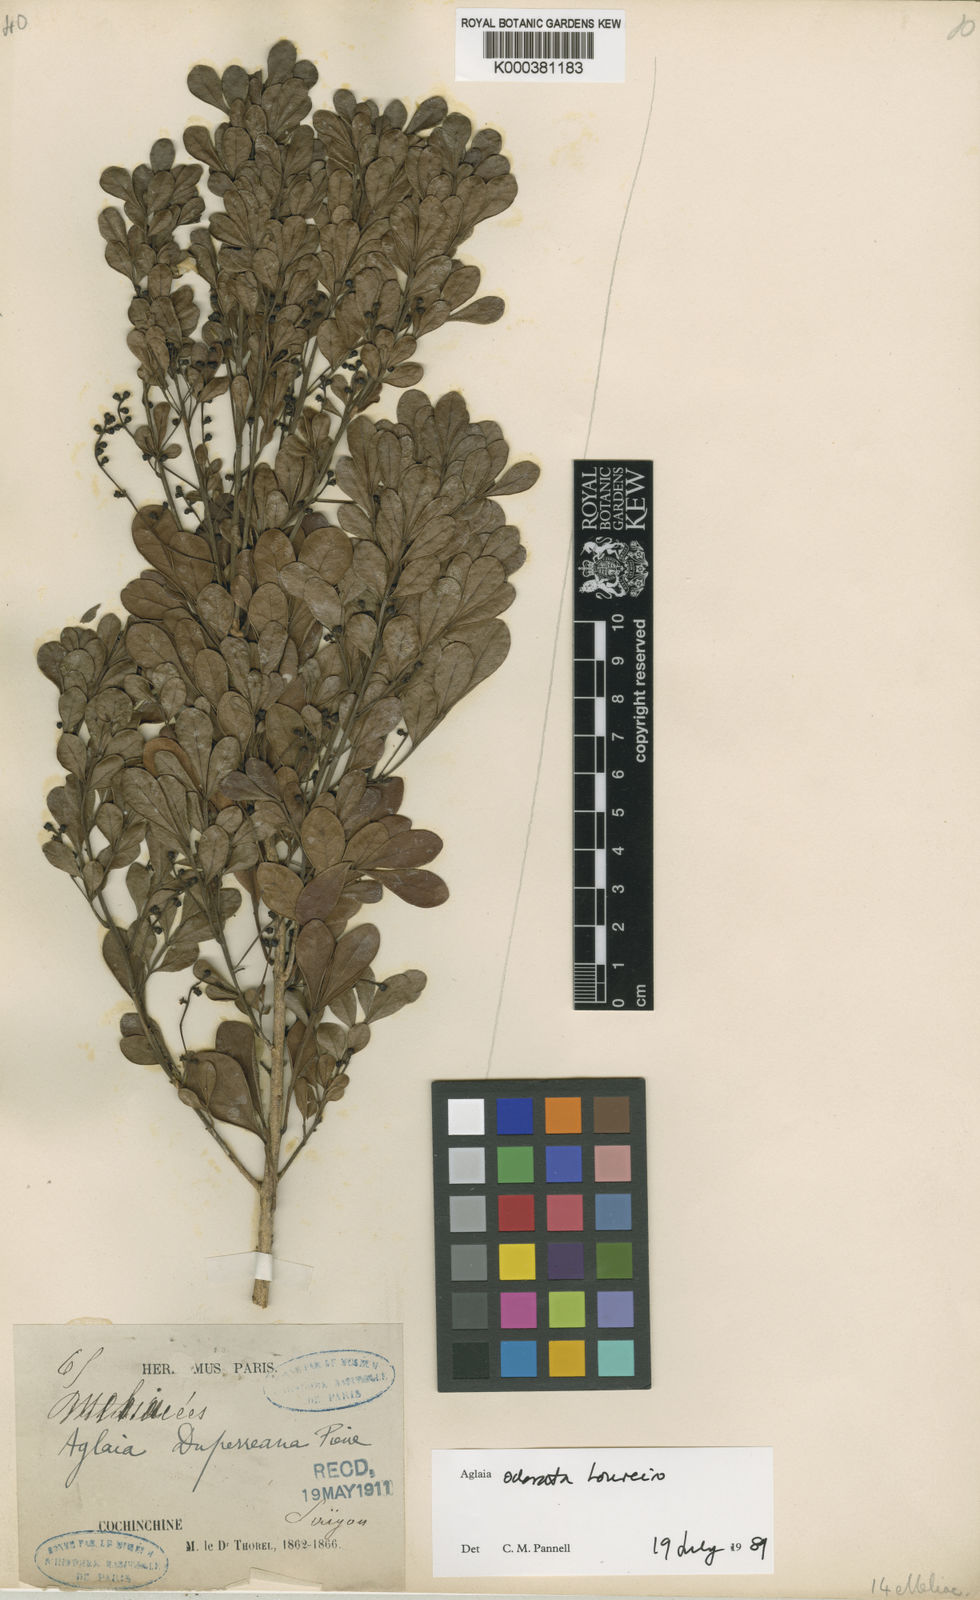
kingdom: Plantae
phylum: Tracheophyta
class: Magnoliopsida
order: Sapindales
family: Meliaceae
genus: Aglaia
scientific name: Aglaia odorata
